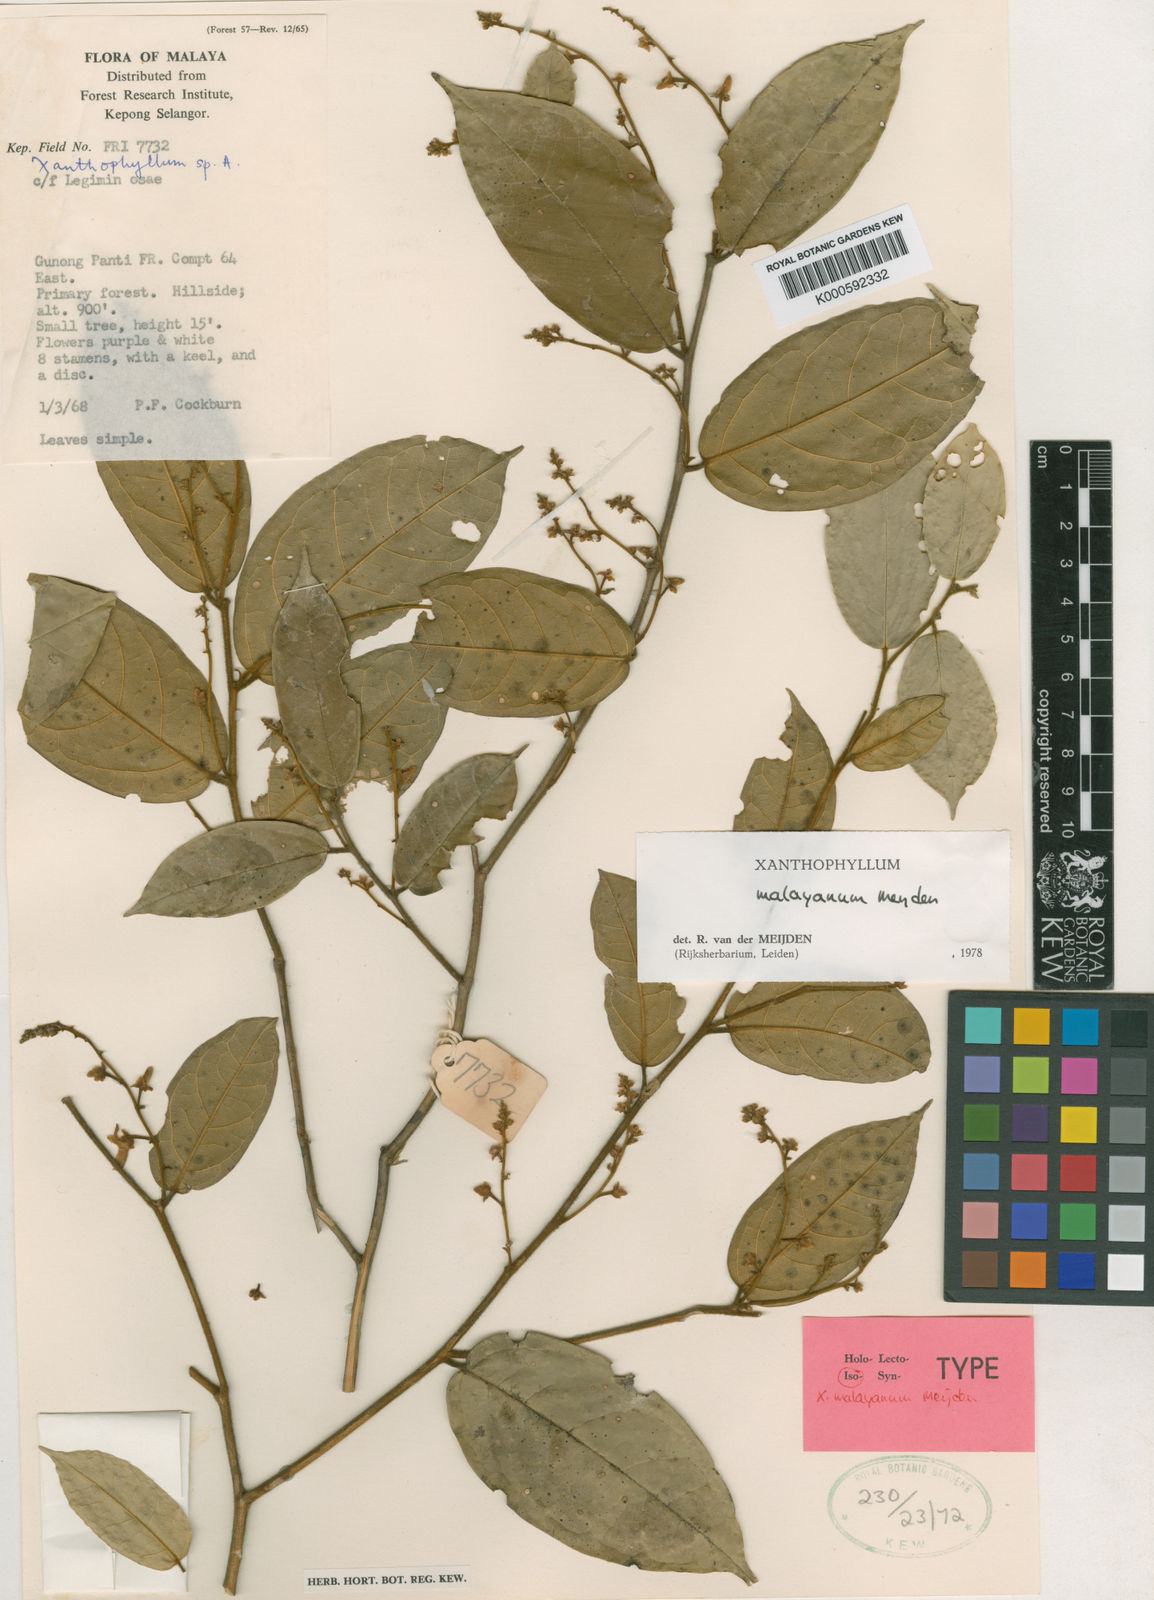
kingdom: Plantae
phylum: Tracheophyta
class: Magnoliopsida
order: Fabales
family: Polygalaceae
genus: Xanthophyllum
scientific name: Xanthophyllum malayanum
